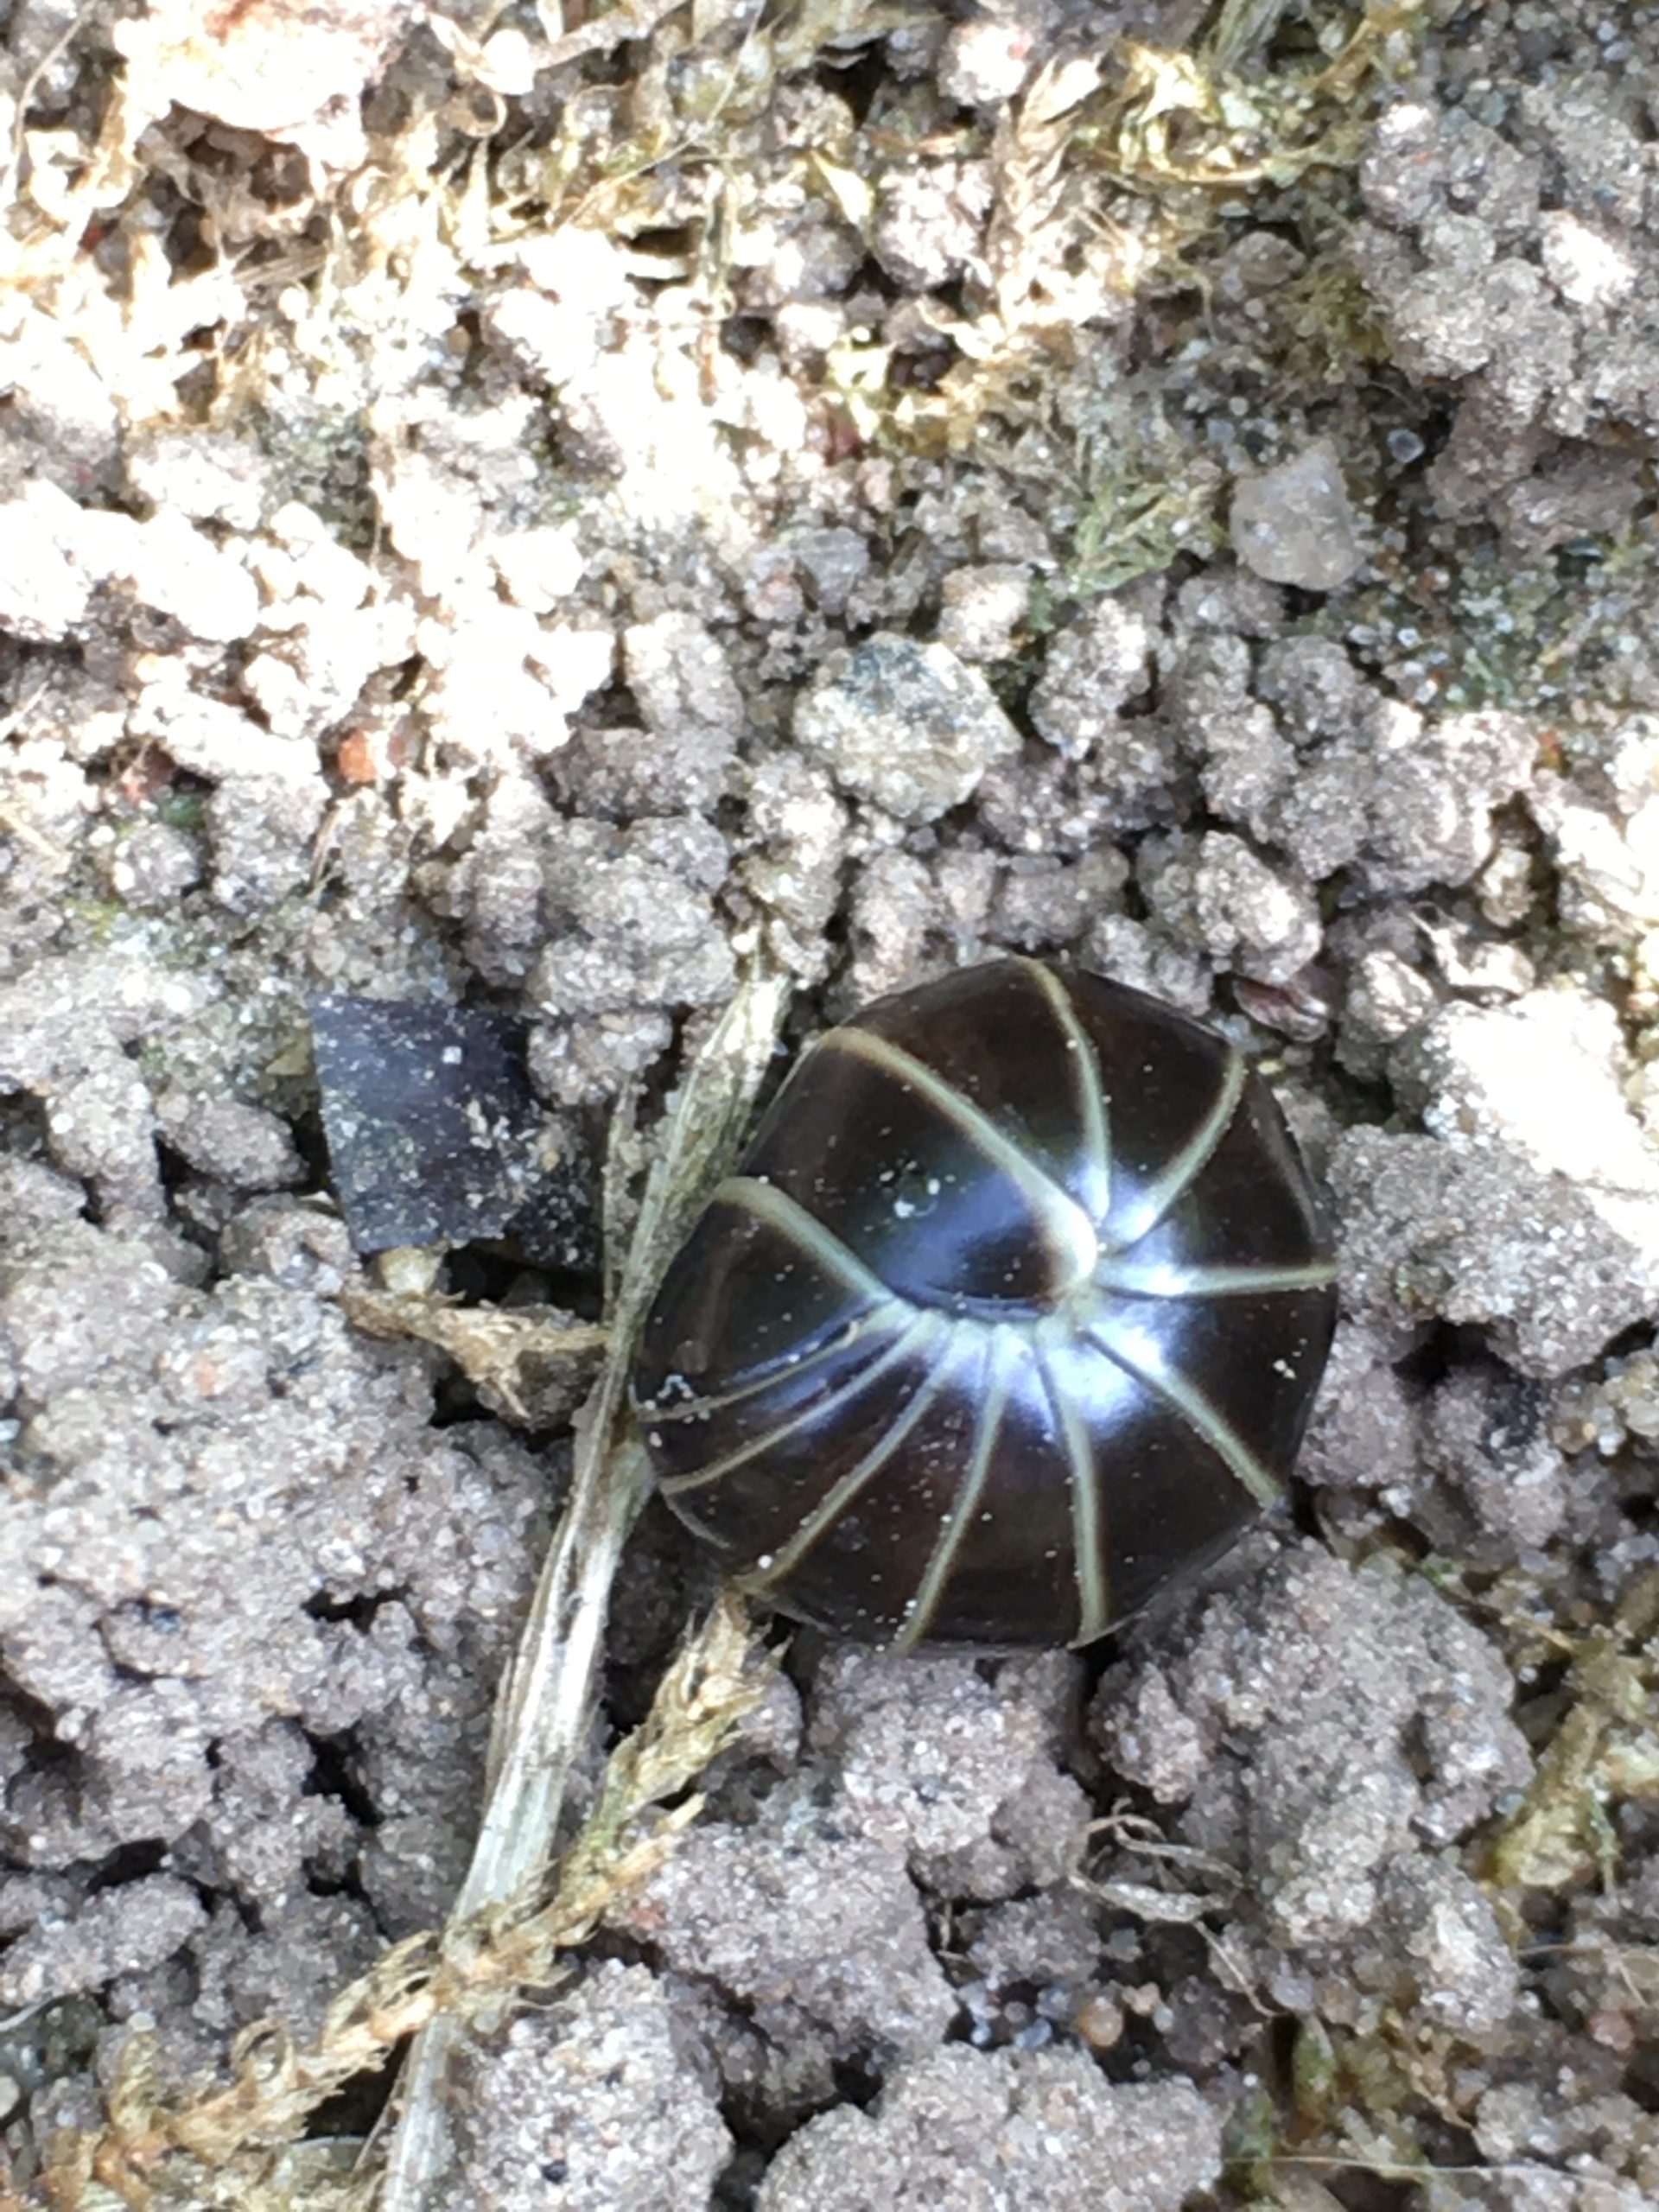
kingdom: Animalia
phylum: Arthropoda
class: Diplopoda
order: Glomerida
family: Glomeridae
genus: Glomeris
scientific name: Glomeris marginata
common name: Kugletusindben
